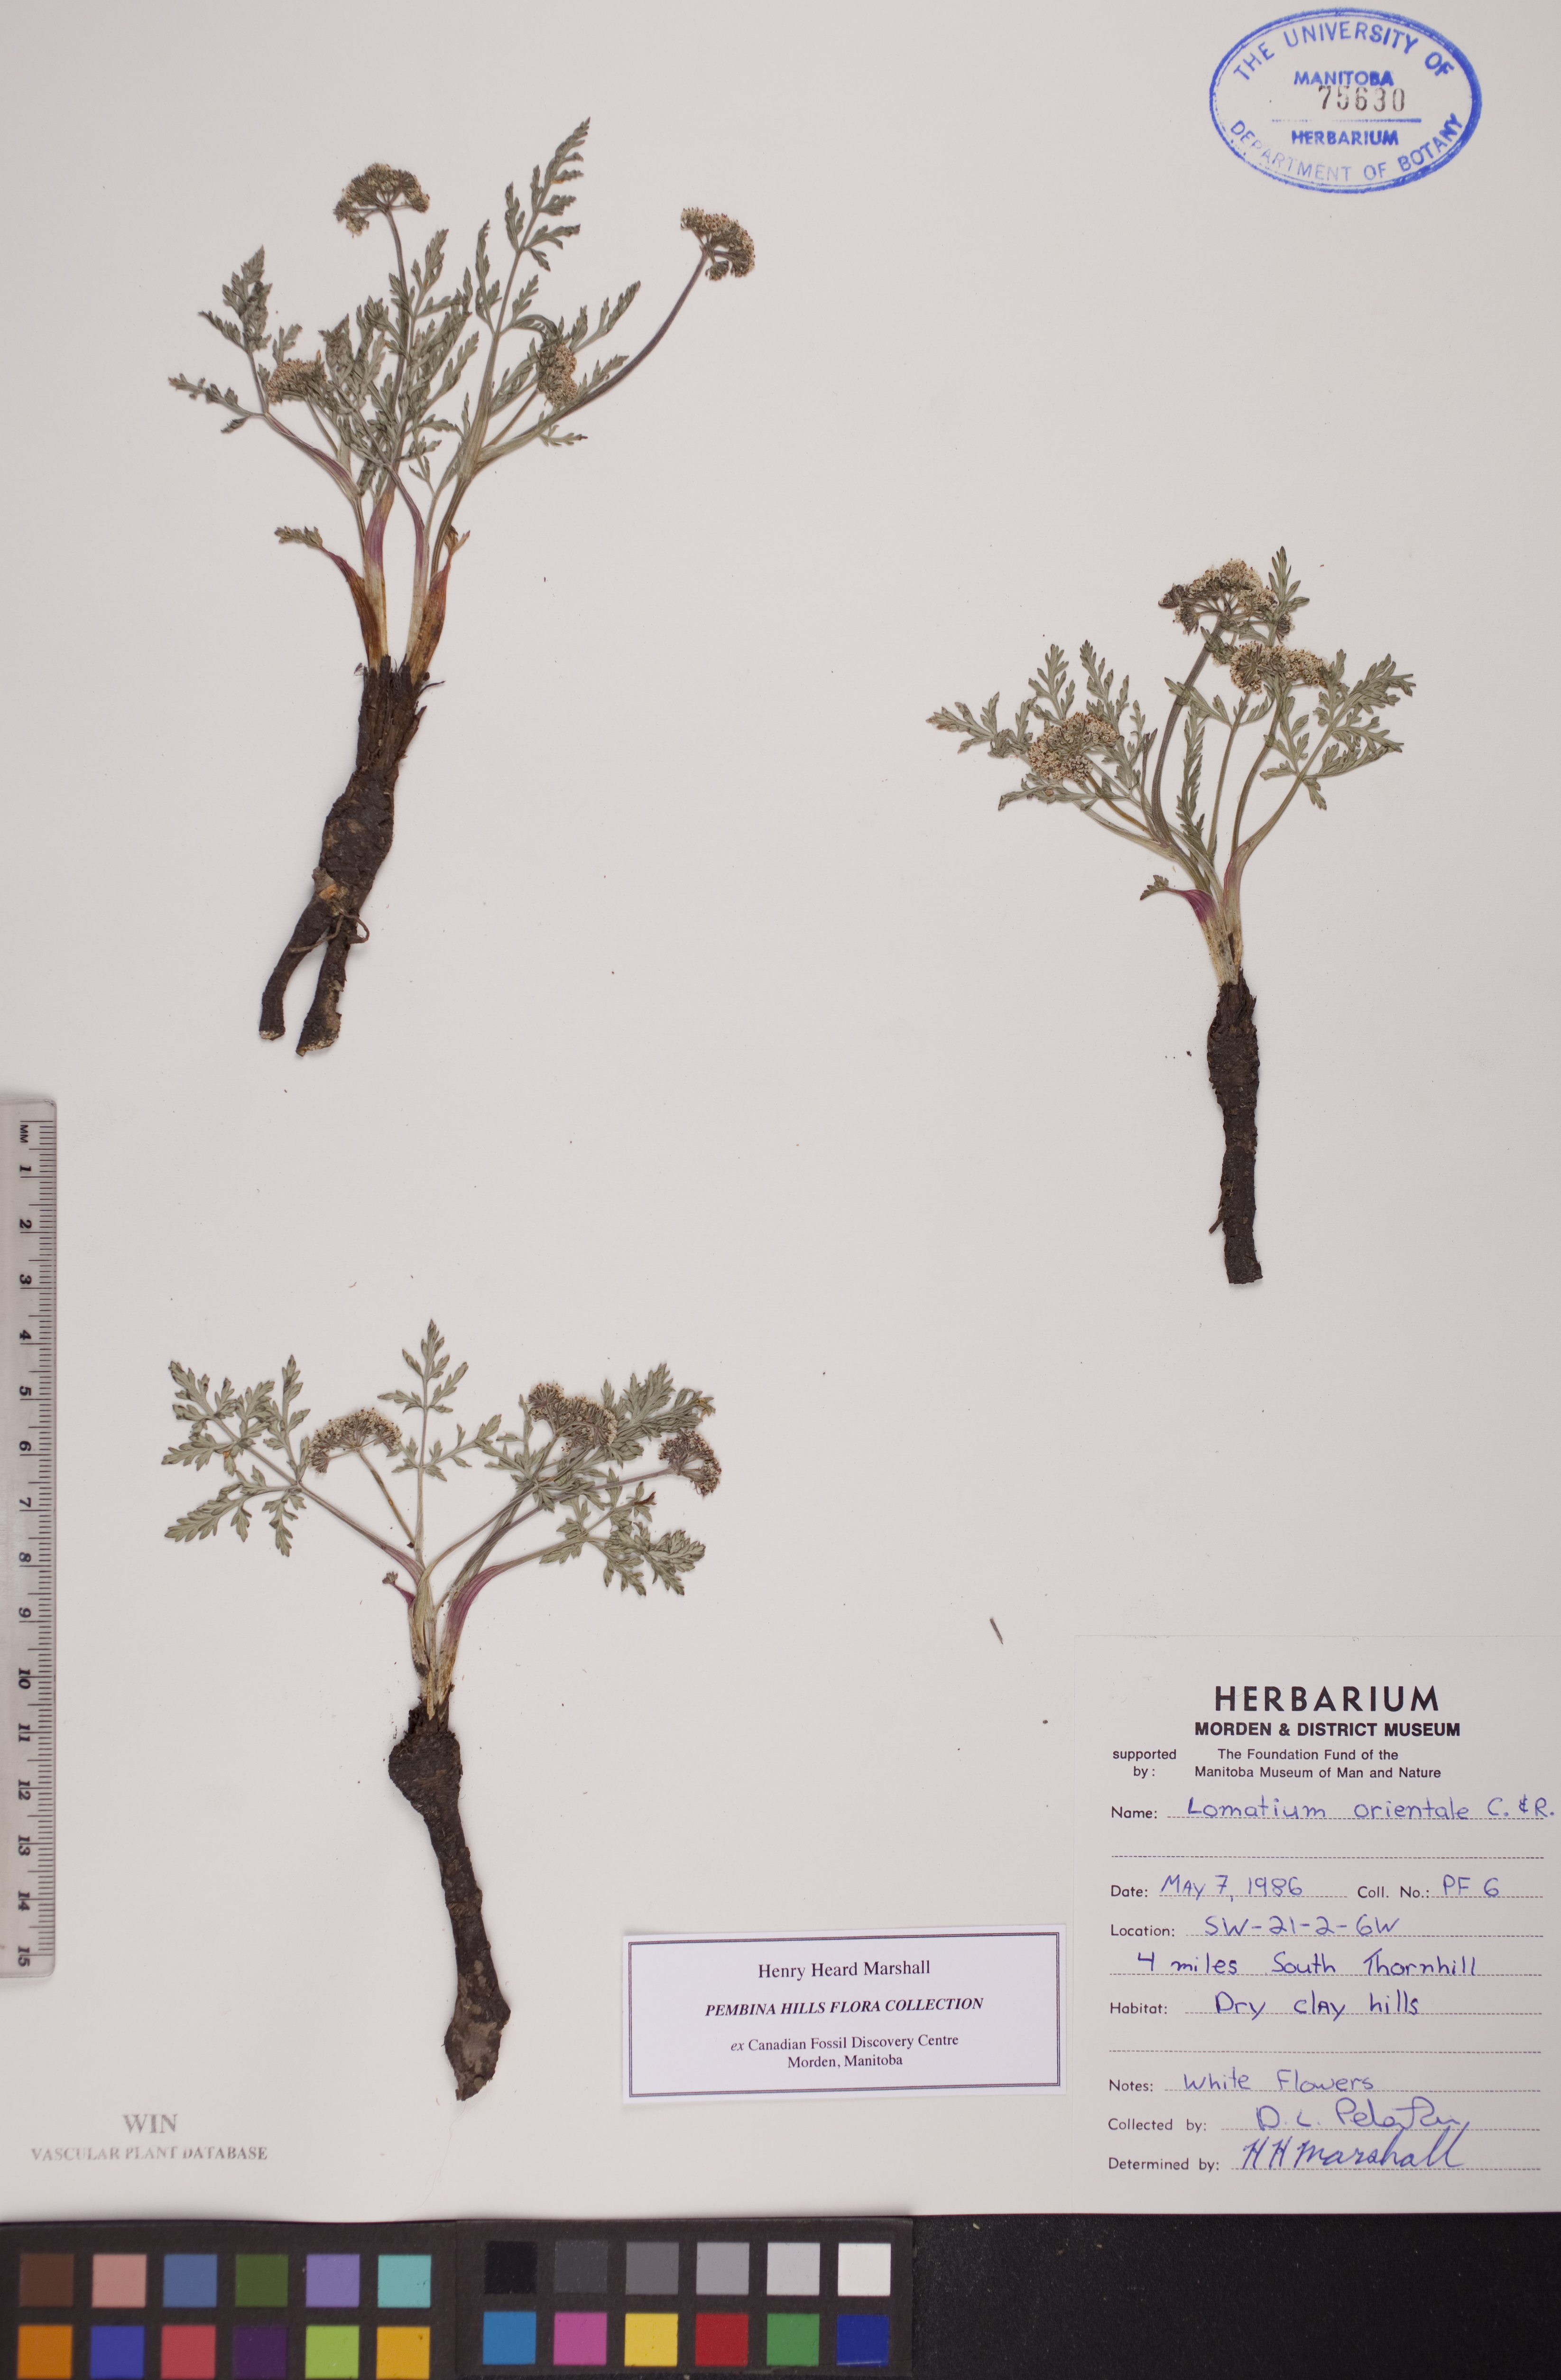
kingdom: Plantae
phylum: Tracheophyta
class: Magnoliopsida
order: Apiales
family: Apiaceae
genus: Lomatium
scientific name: Lomatium orientale
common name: Eastern cous
